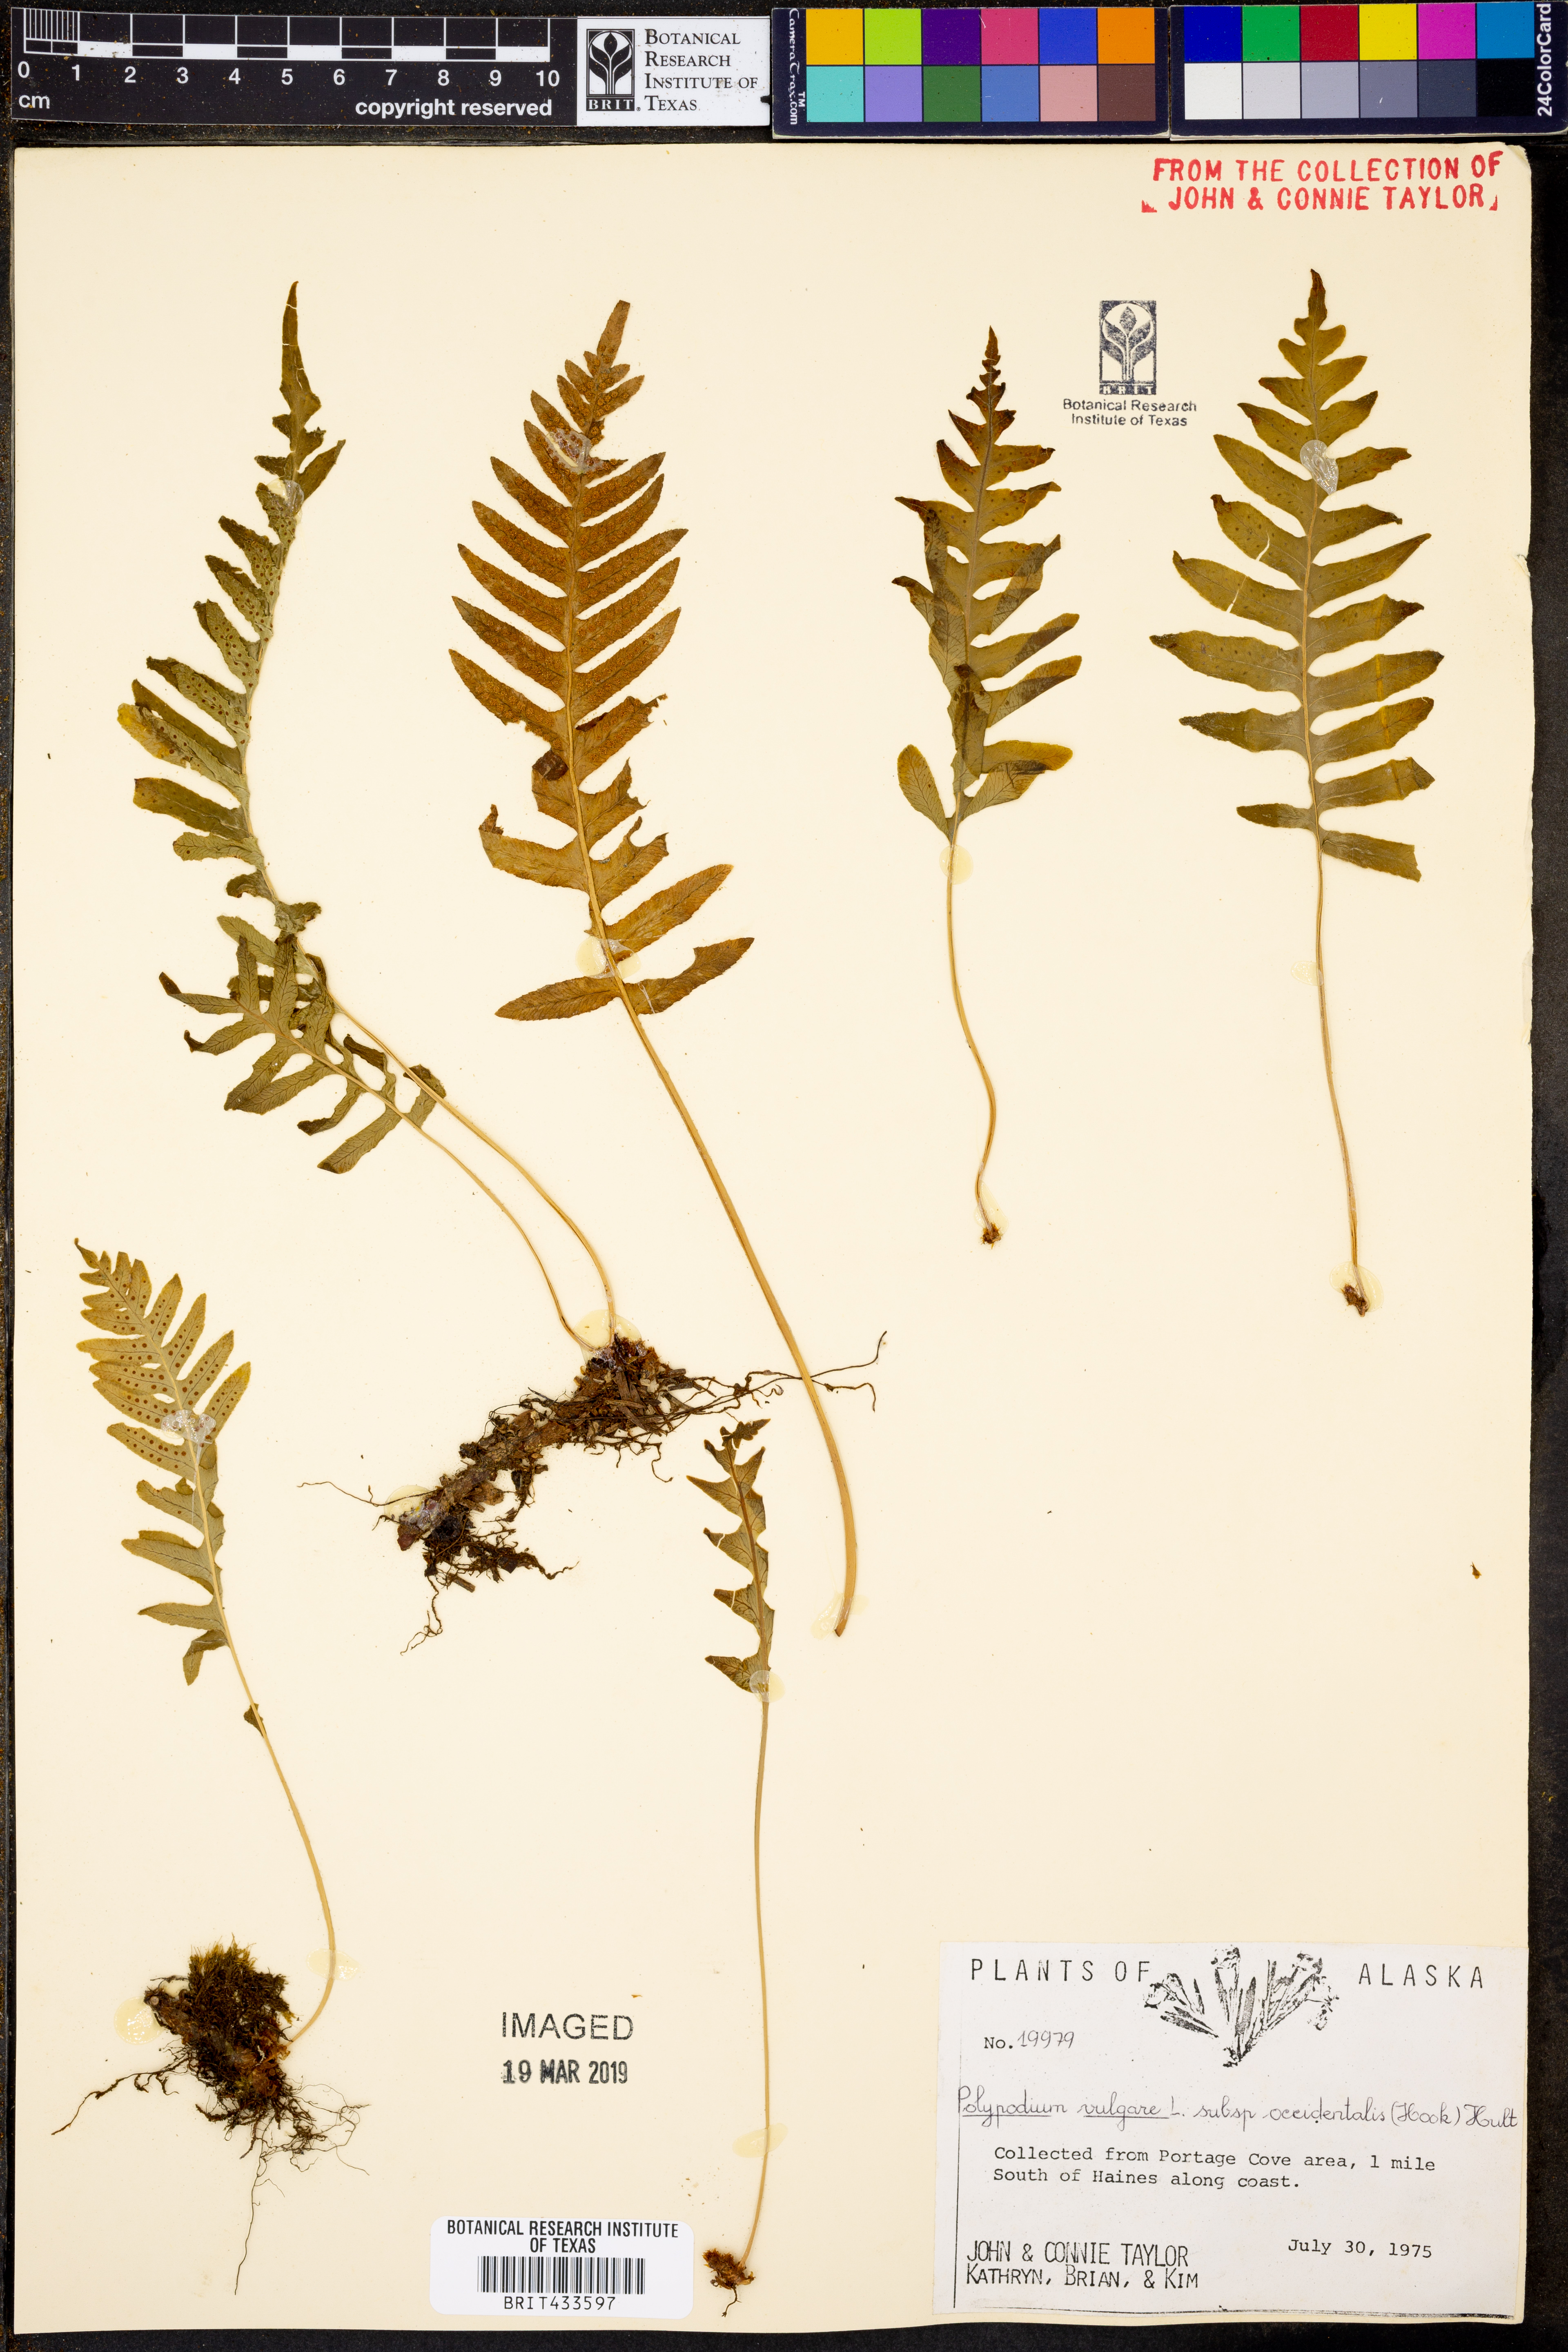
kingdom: Plantae
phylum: Tracheophyta
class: Polypodiopsida
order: Polypodiales
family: Polypodiaceae
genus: Polypodium
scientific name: Polypodium glycyrrhiza
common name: Licorice fern
